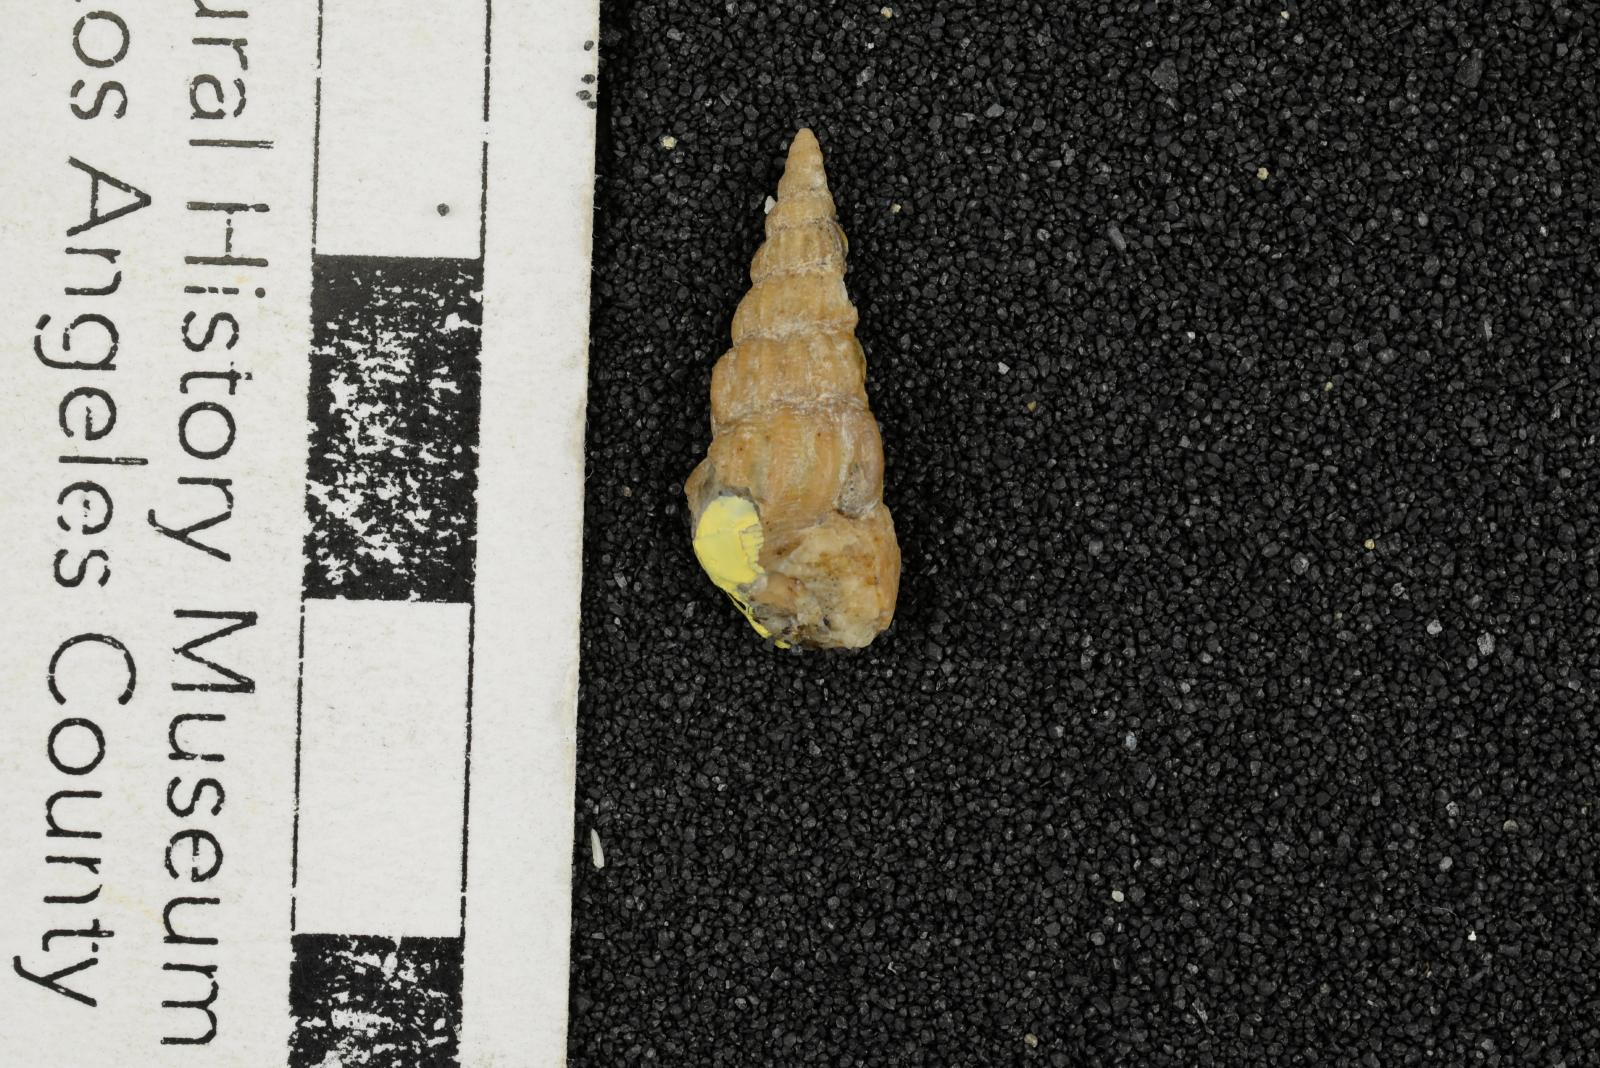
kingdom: Animalia
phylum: Mollusca
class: Gastropoda
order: Littorinimorpha
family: Aporrhaidae
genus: Alarimella
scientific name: Alarimella anae
